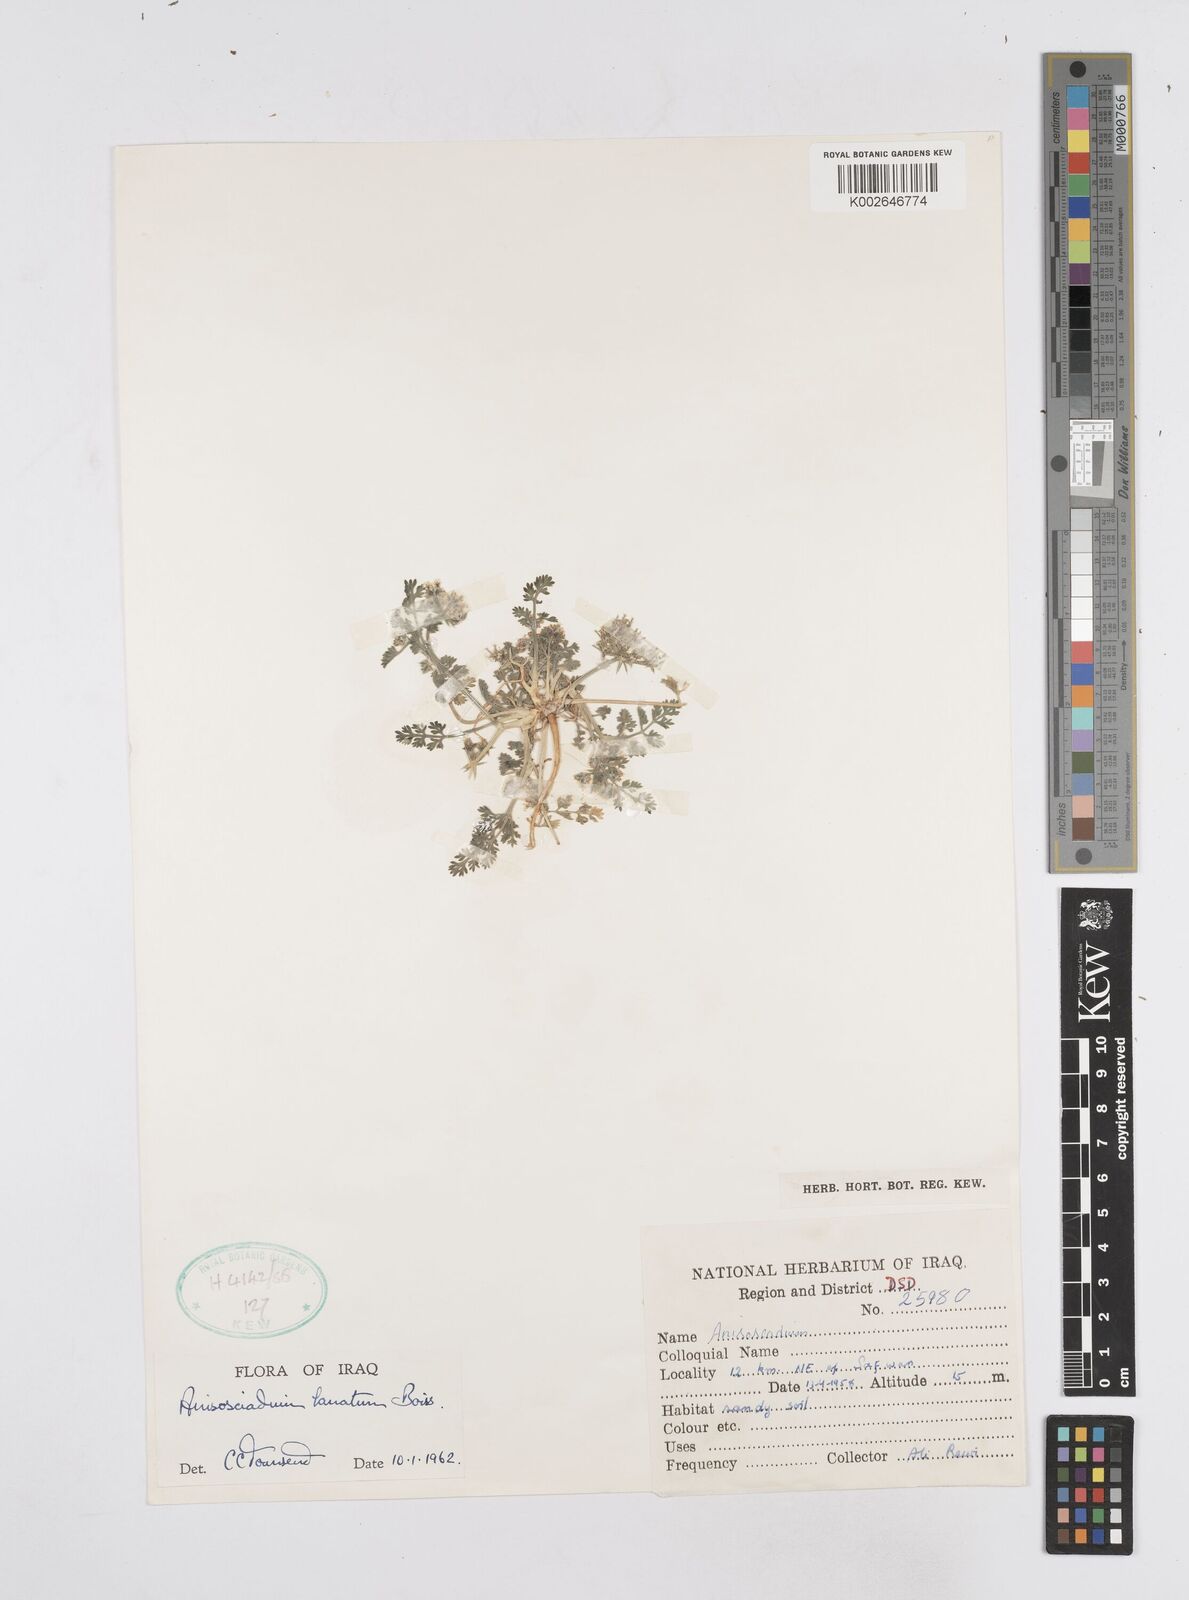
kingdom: Plantae
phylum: Tracheophyta
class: Magnoliopsida
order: Apiales
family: Apiaceae
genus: Anisosciadium
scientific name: Anisosciadium lanatum
